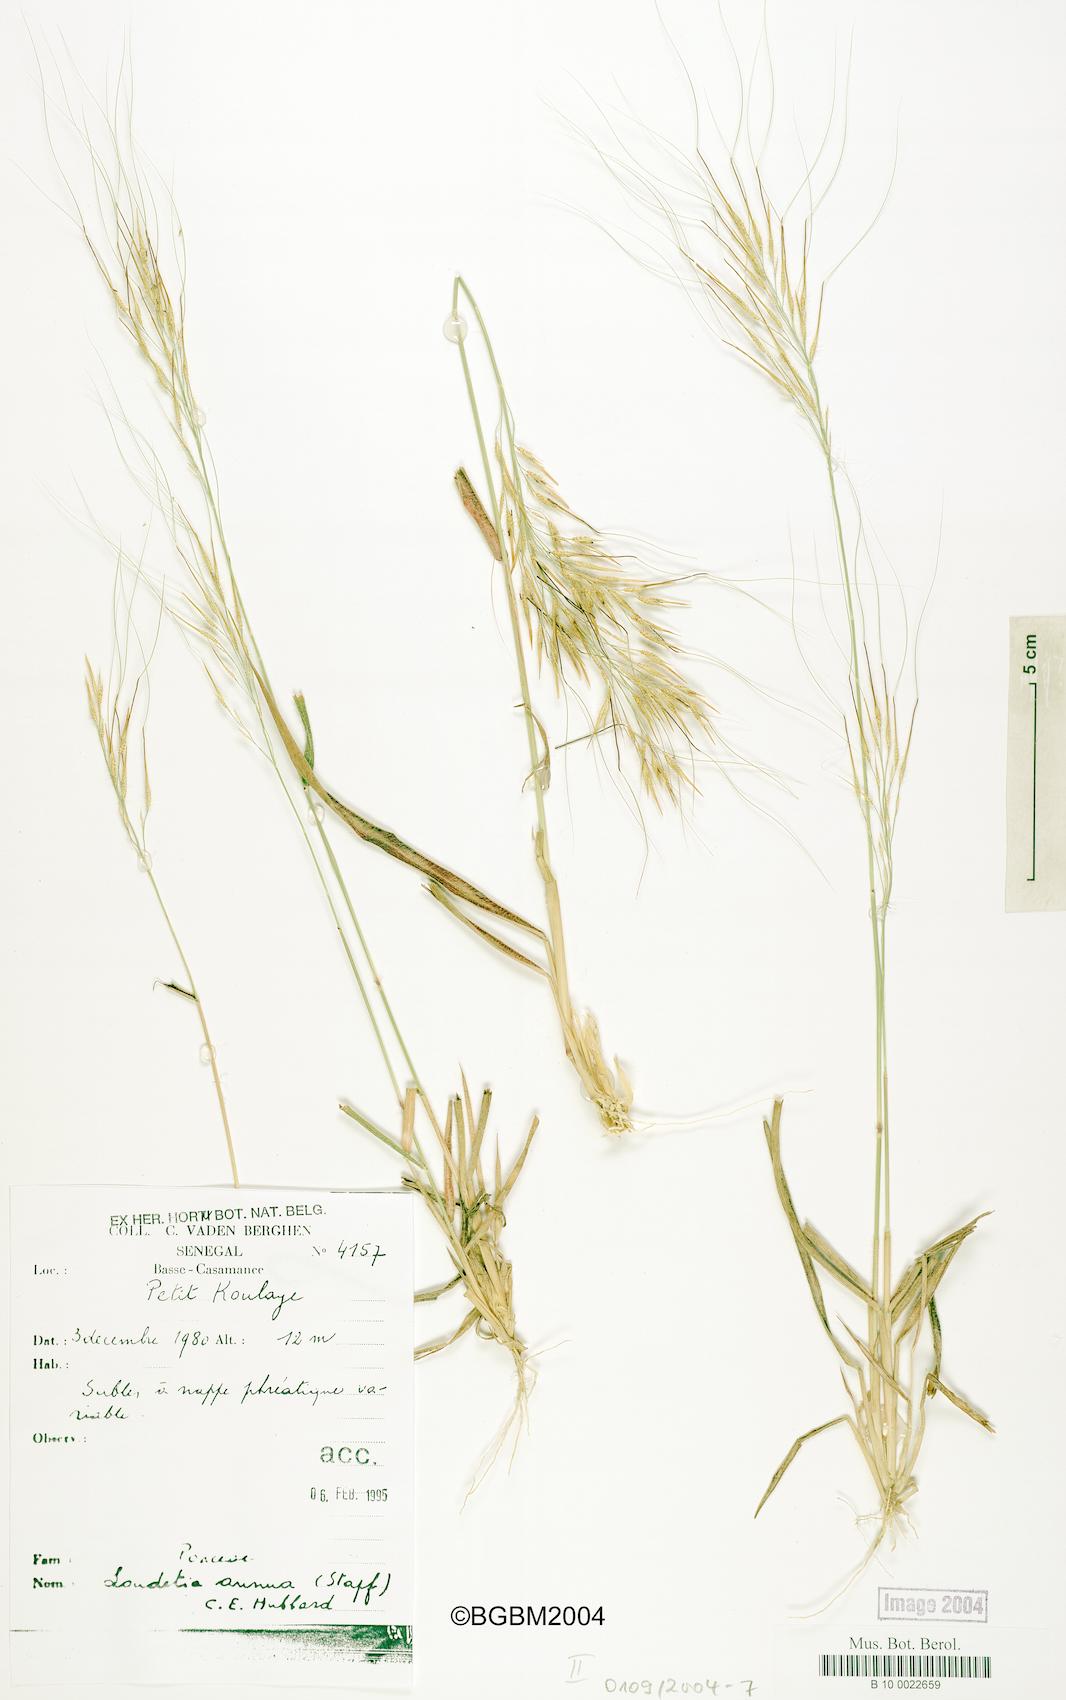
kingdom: Plantae
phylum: Tracheophyta
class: Liliopsida
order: Poales
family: Poaceae
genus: Loudetia
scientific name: Loudetia annua
